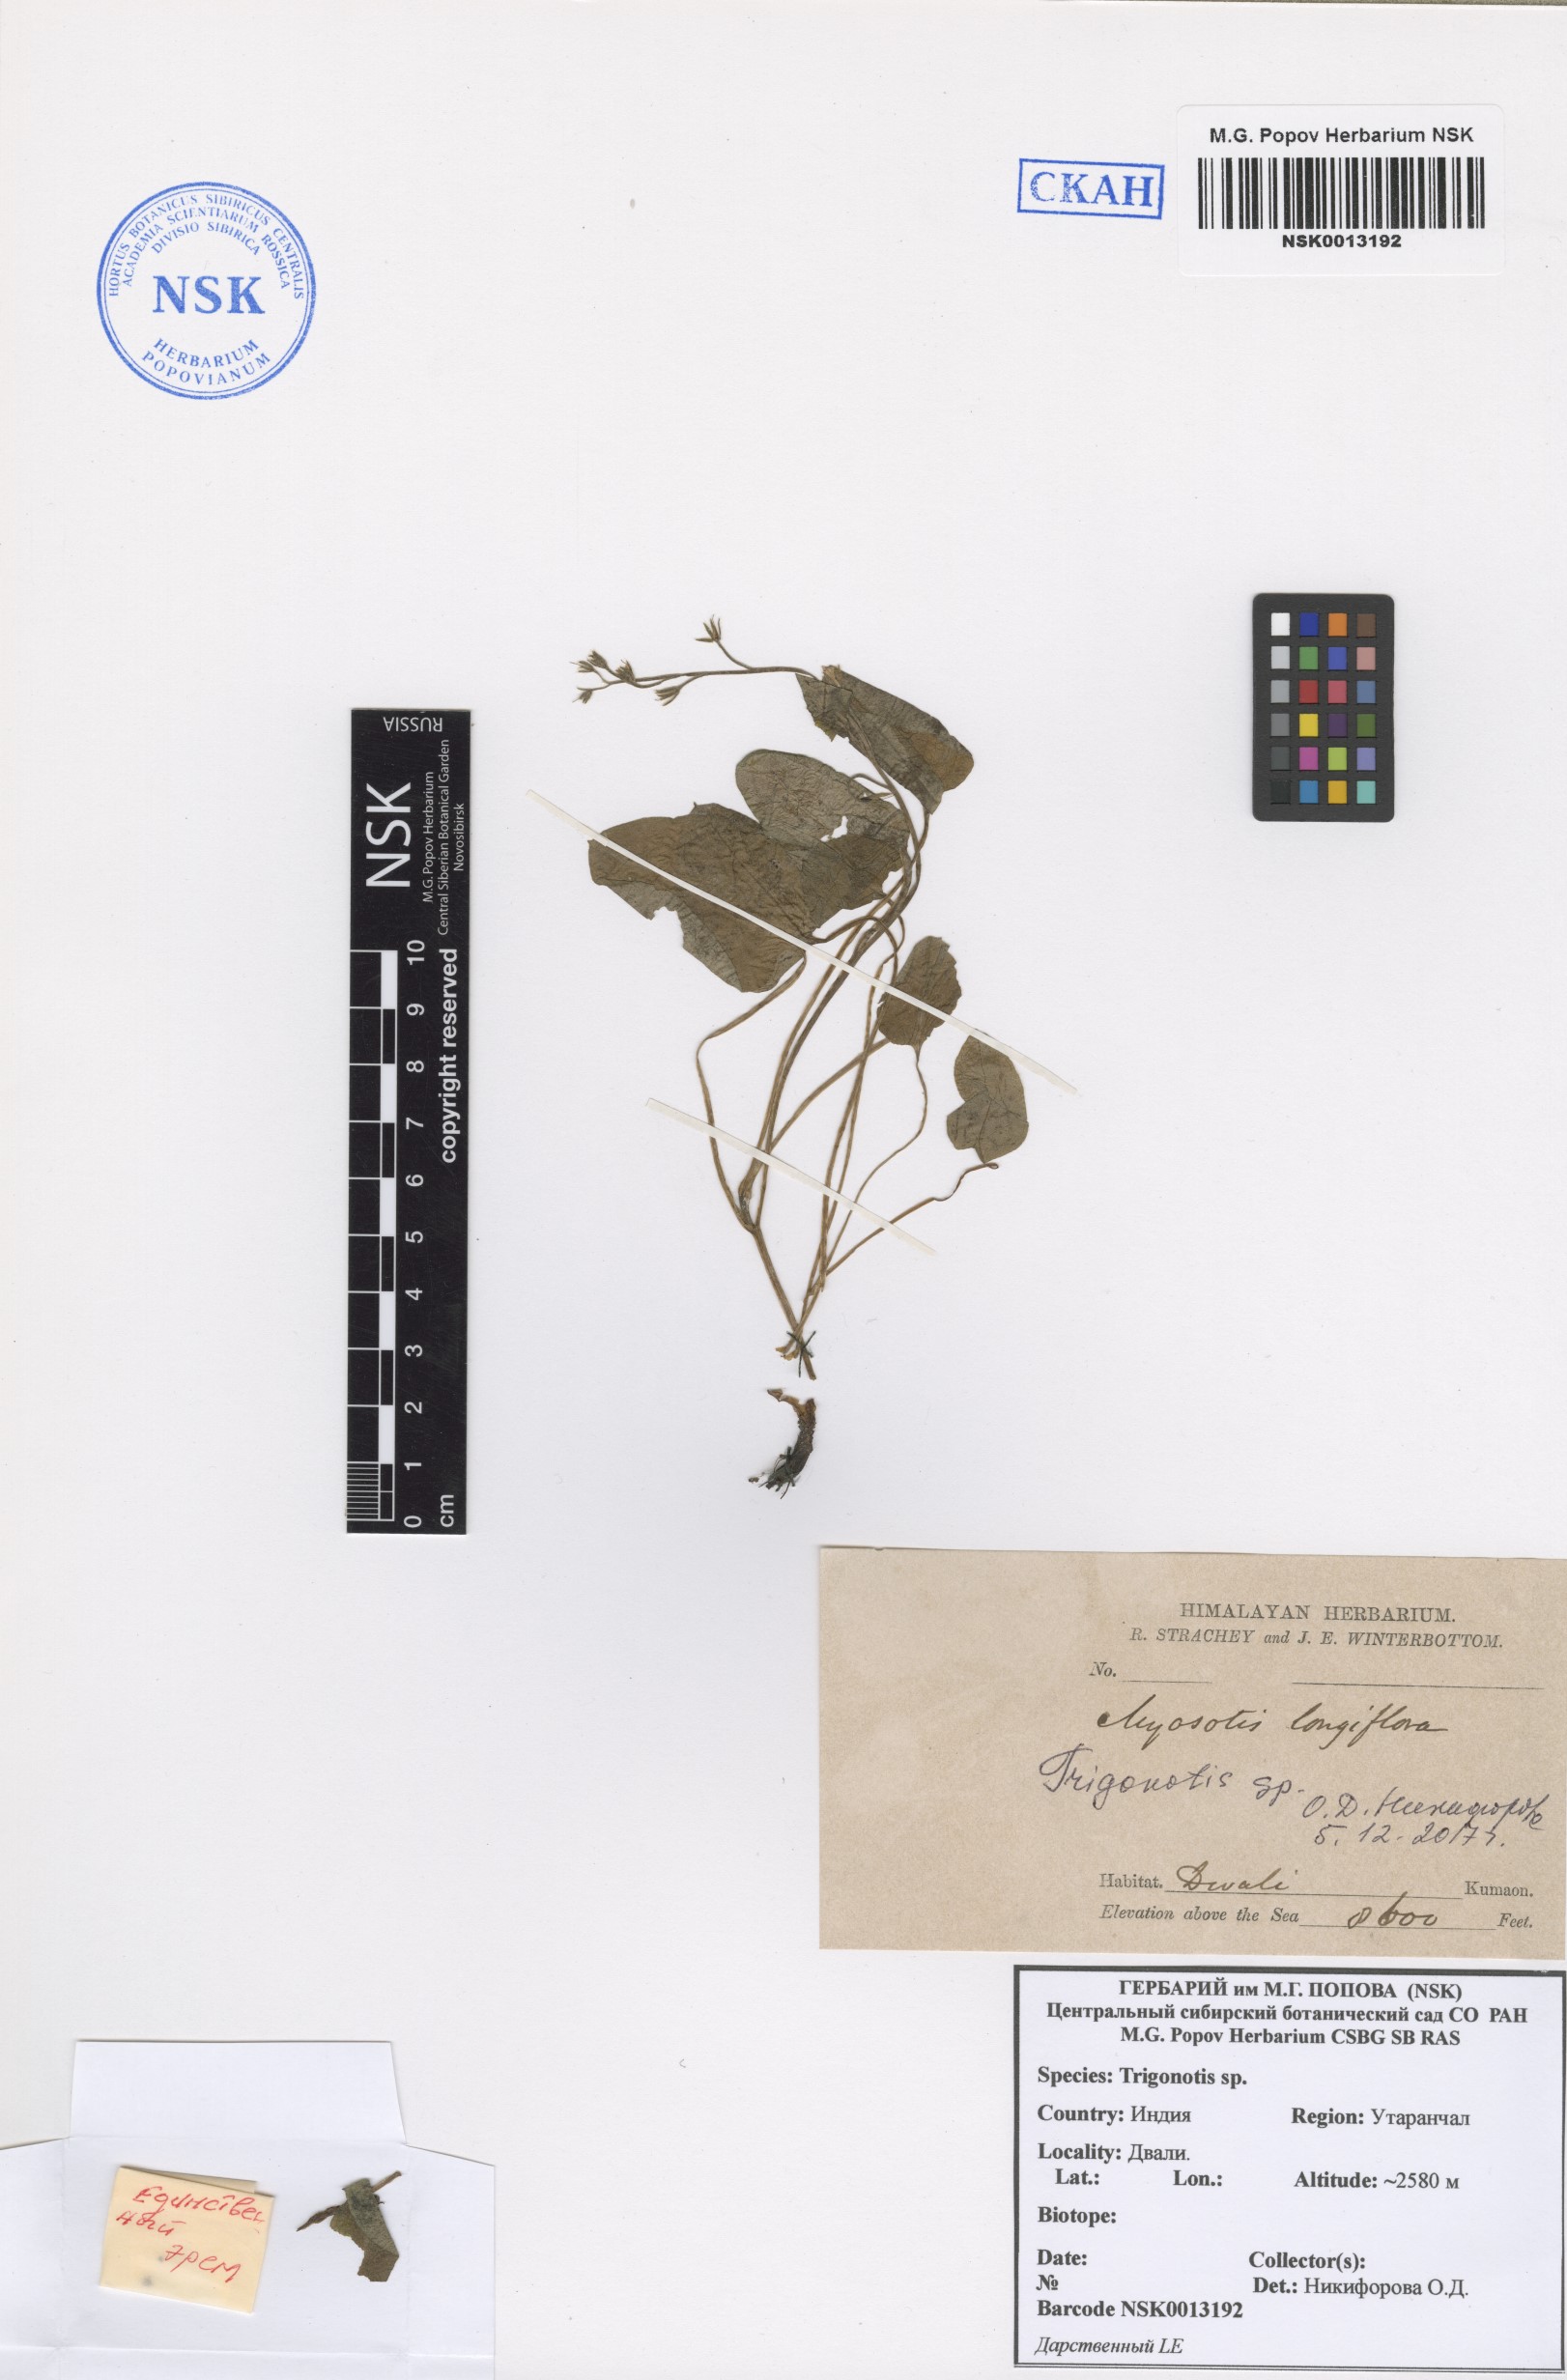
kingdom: Plantae
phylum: Tracheophyta
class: Magnoliopsida
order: Boraginales
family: Boraginaceae
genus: Trigonotis
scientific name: Trigonotis
